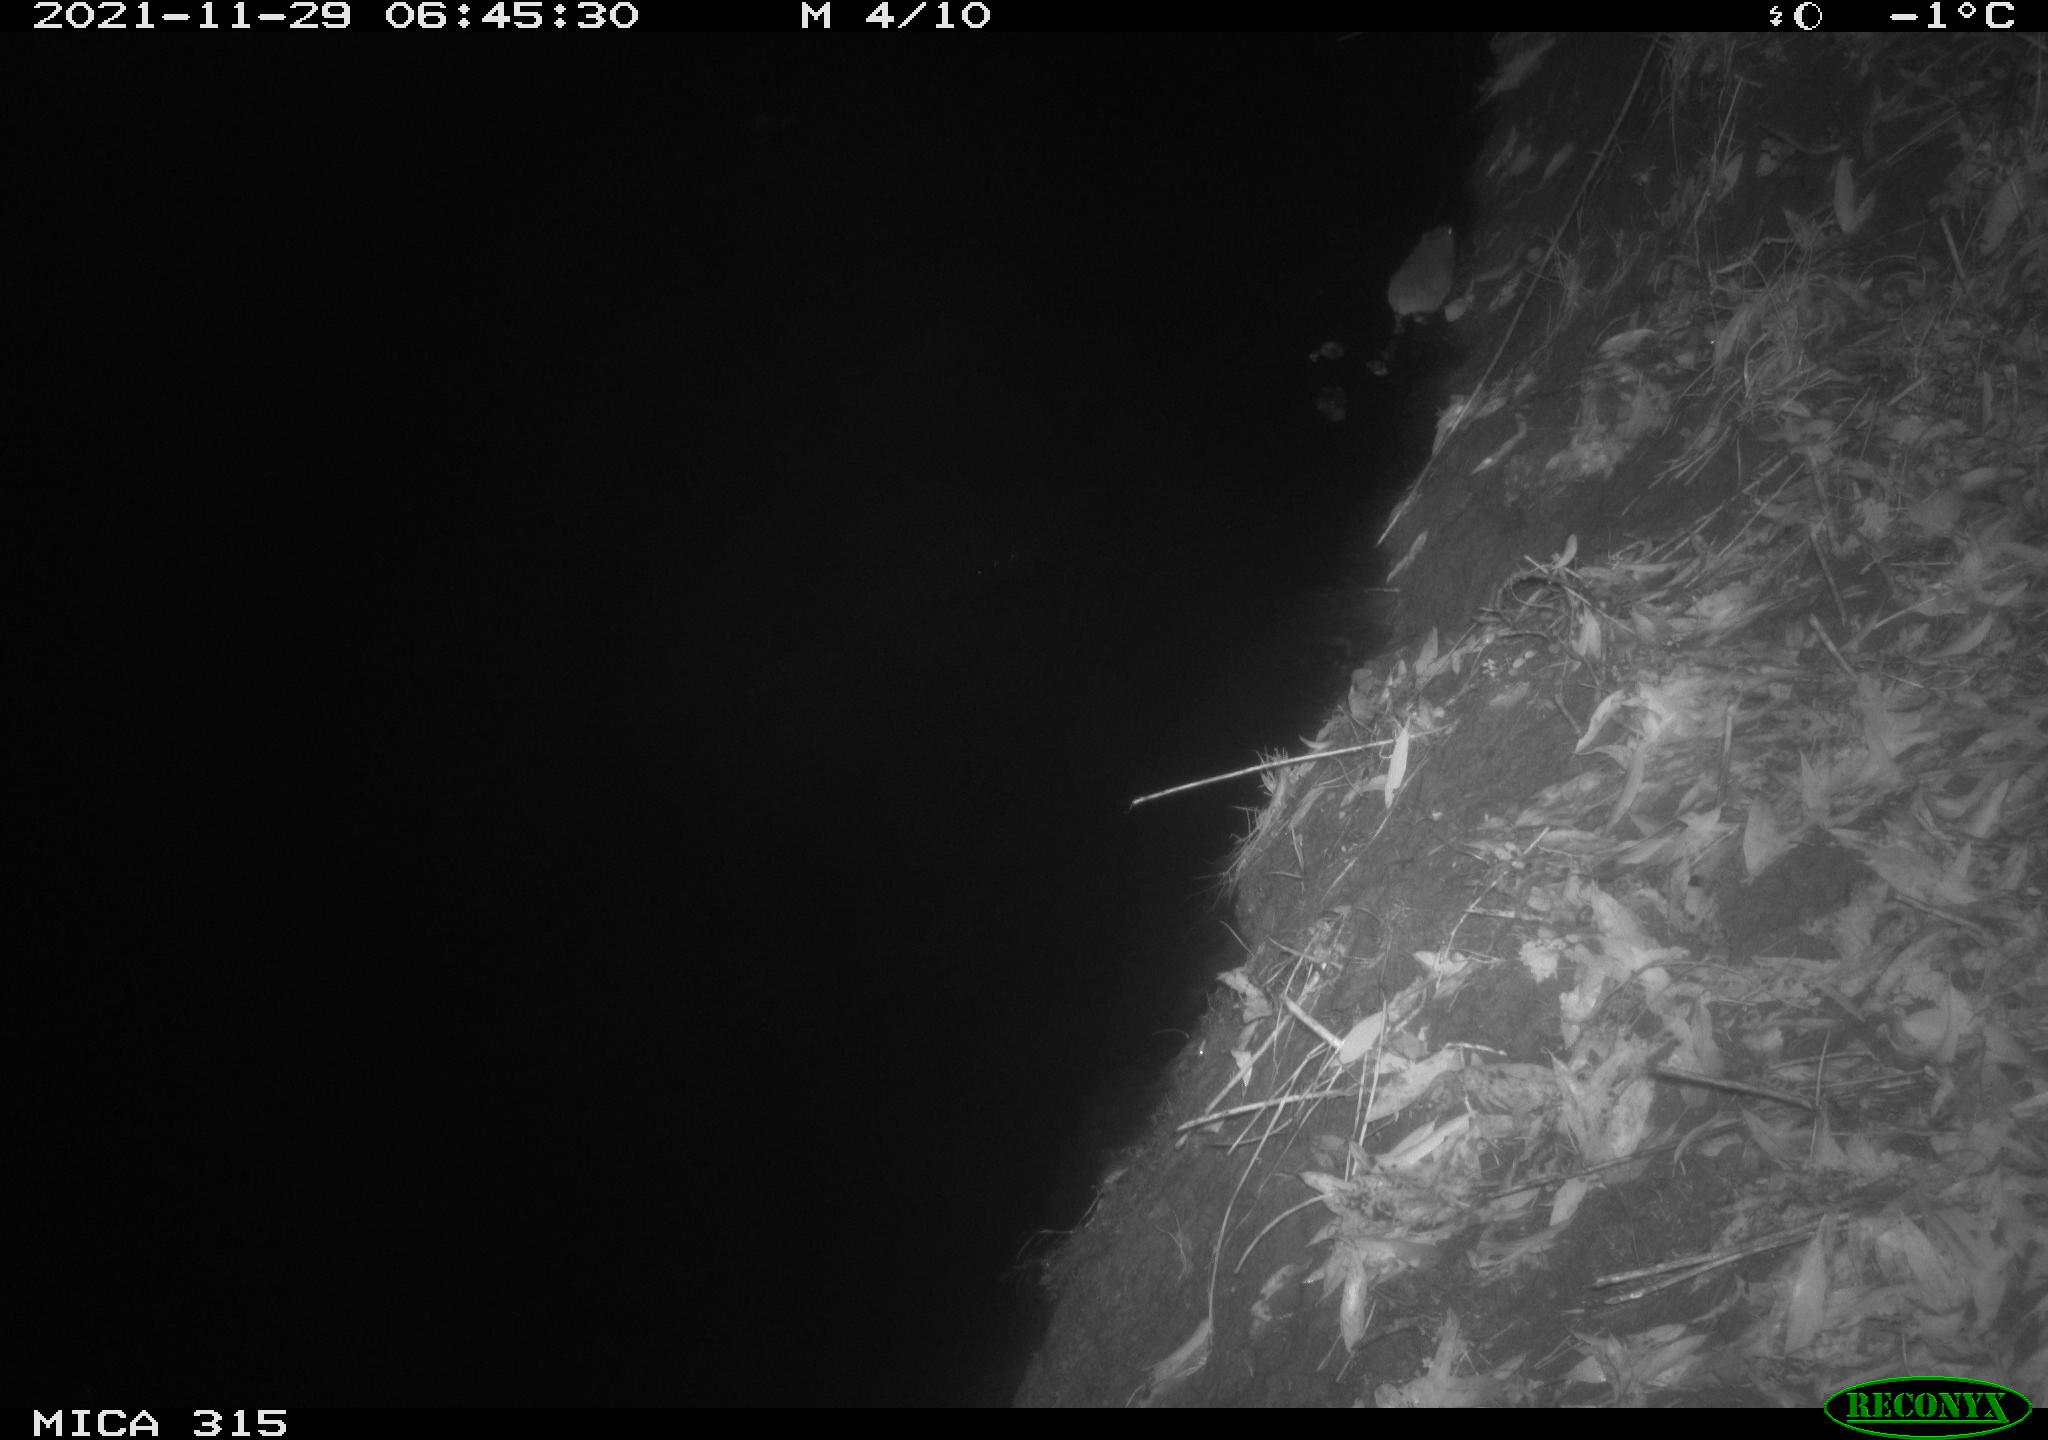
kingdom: Animalia
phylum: Chordata
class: Mammalia
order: Rodentia
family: Muridae
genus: Rattus
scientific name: Rattus norvegicus
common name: Brown rat
